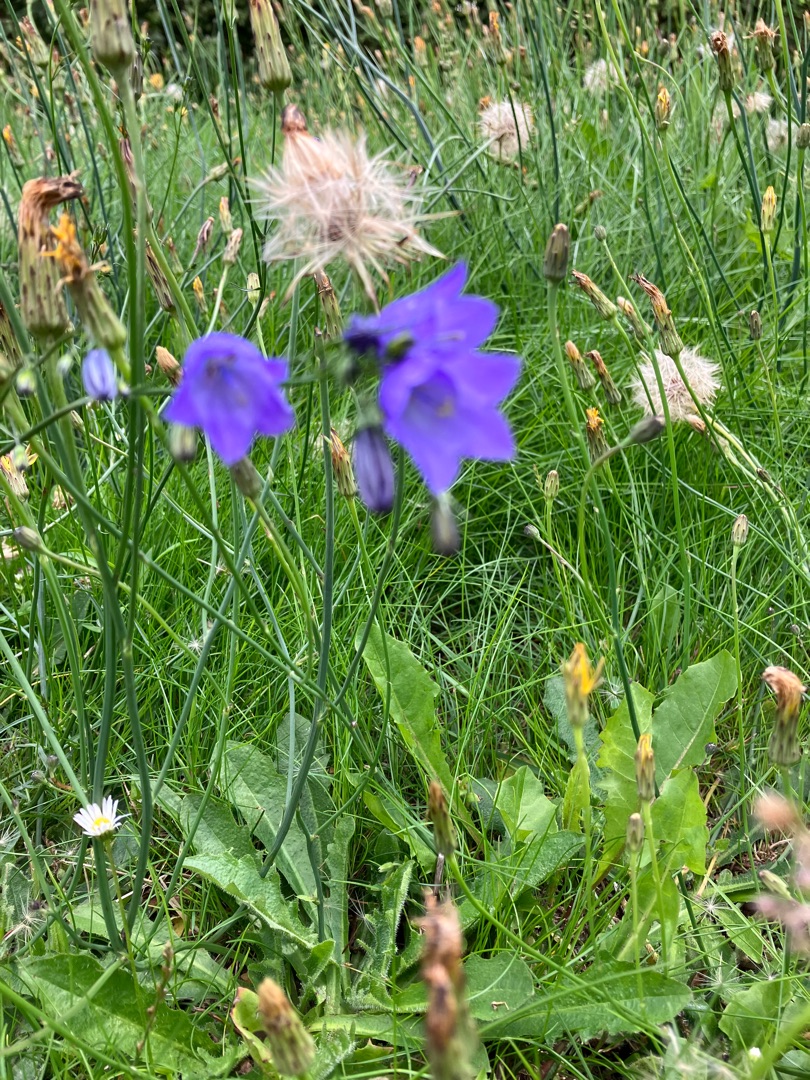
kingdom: Plantae
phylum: Tracheophyta
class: Magnoliopsida
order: Asterales
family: Campanulaceae
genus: Campanula
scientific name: Campanula rotundifolia
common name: Liden klokke
